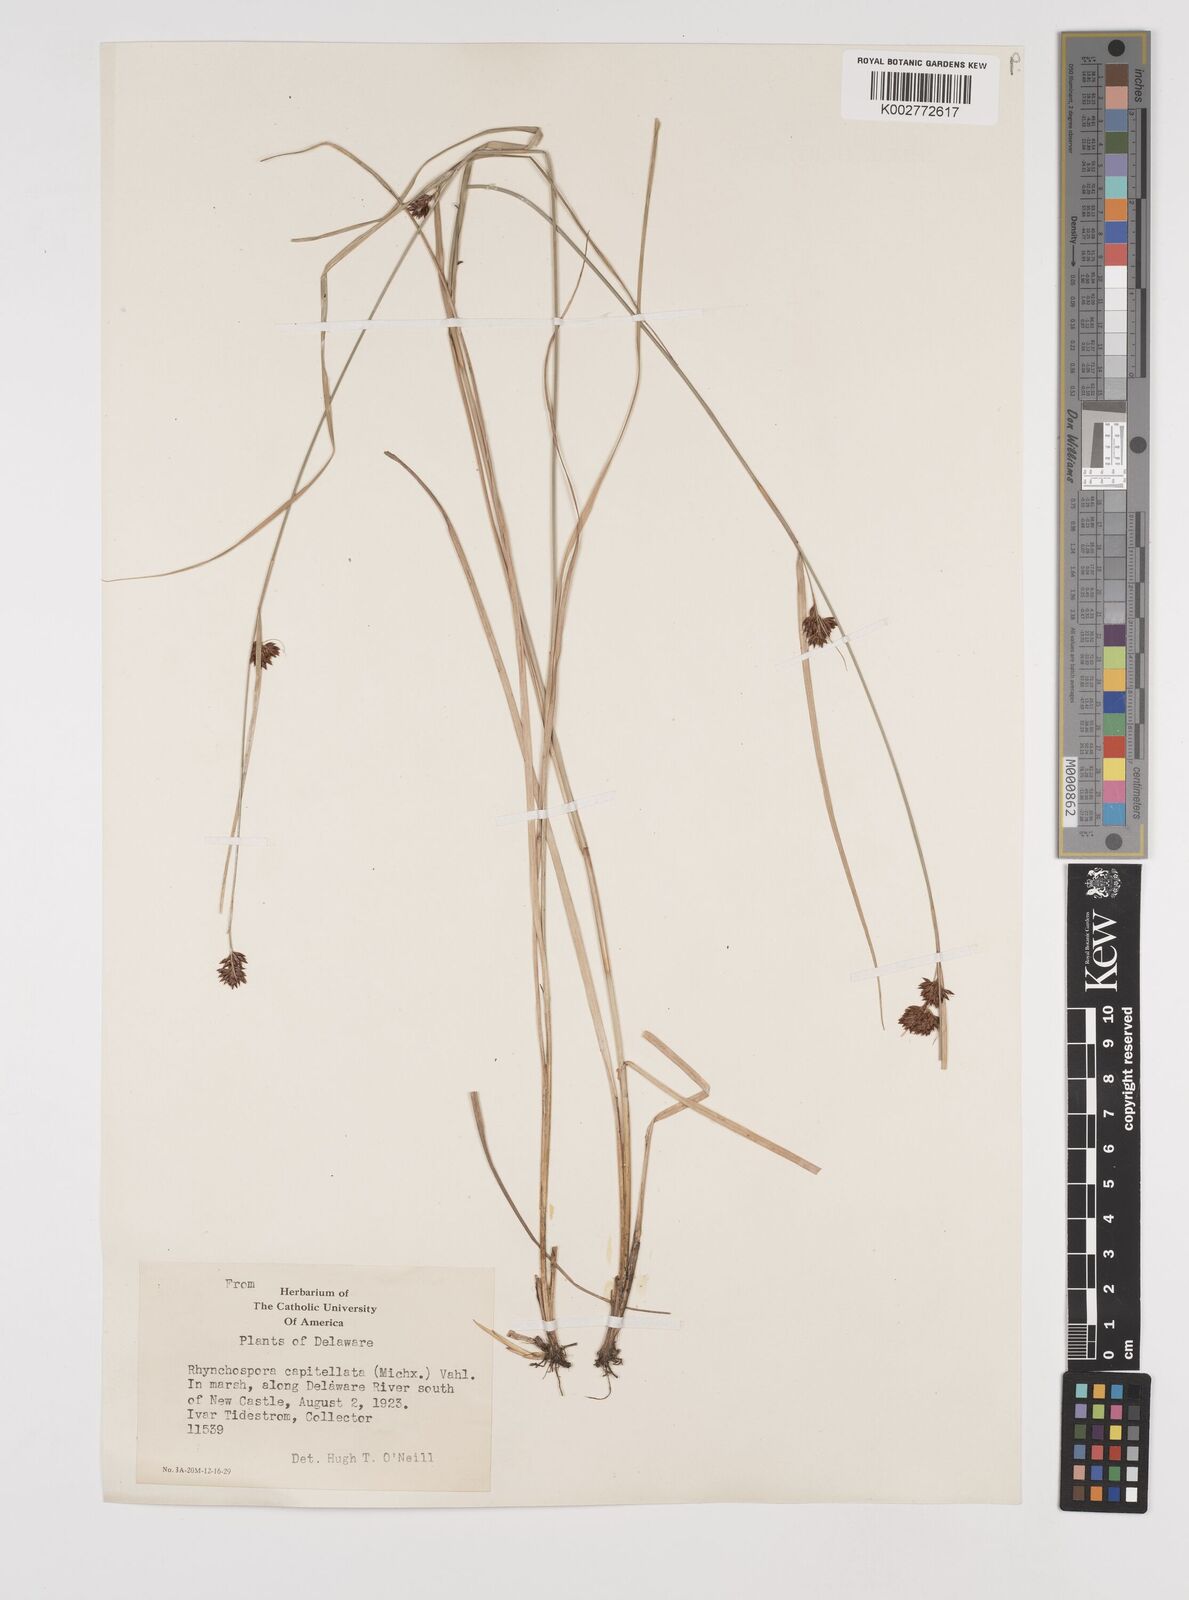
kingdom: Plantae
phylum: Tracheophyta
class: Liliopsida
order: Poales
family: Cyperaceae
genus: Rhynchospora
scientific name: Rhynchospora capitellata
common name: Brownish beaksedge
